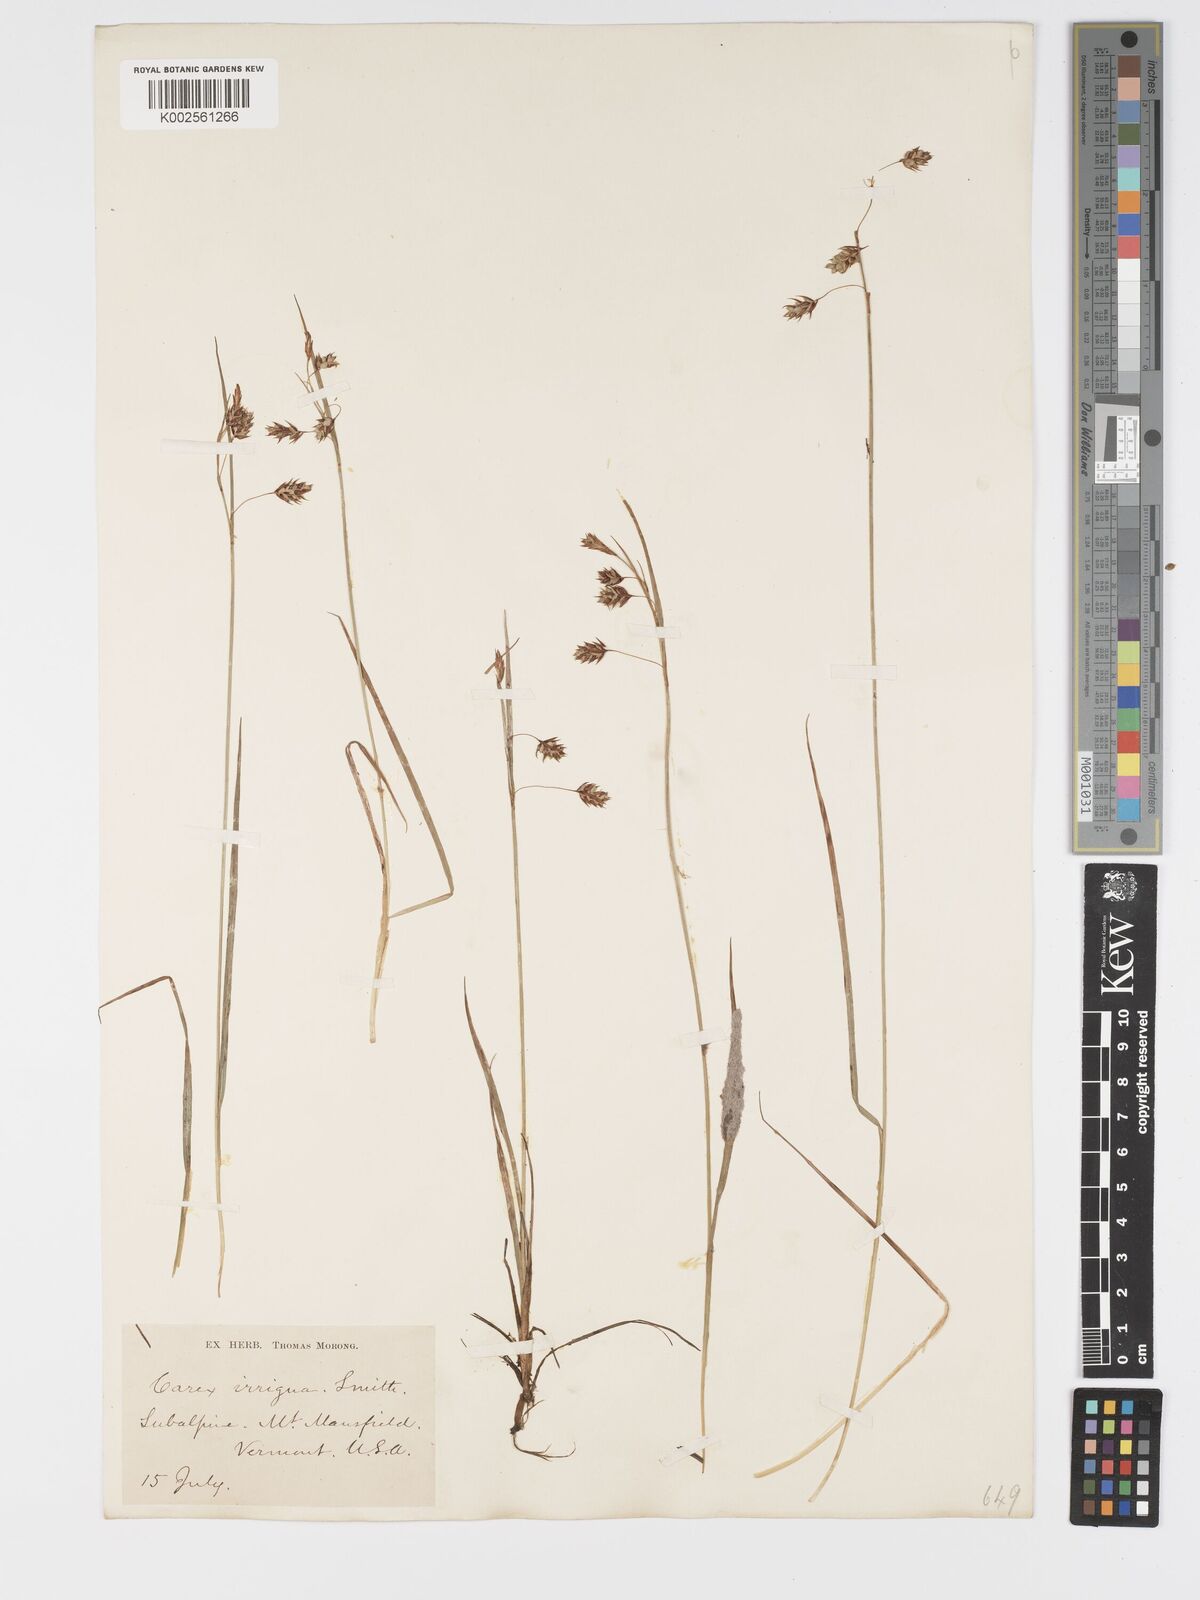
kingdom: Plantae
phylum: Tracheophyta
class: Liliopsida
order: Poales
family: Cyperaceae
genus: Carex
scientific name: Carex limosa
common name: Bog sedge
